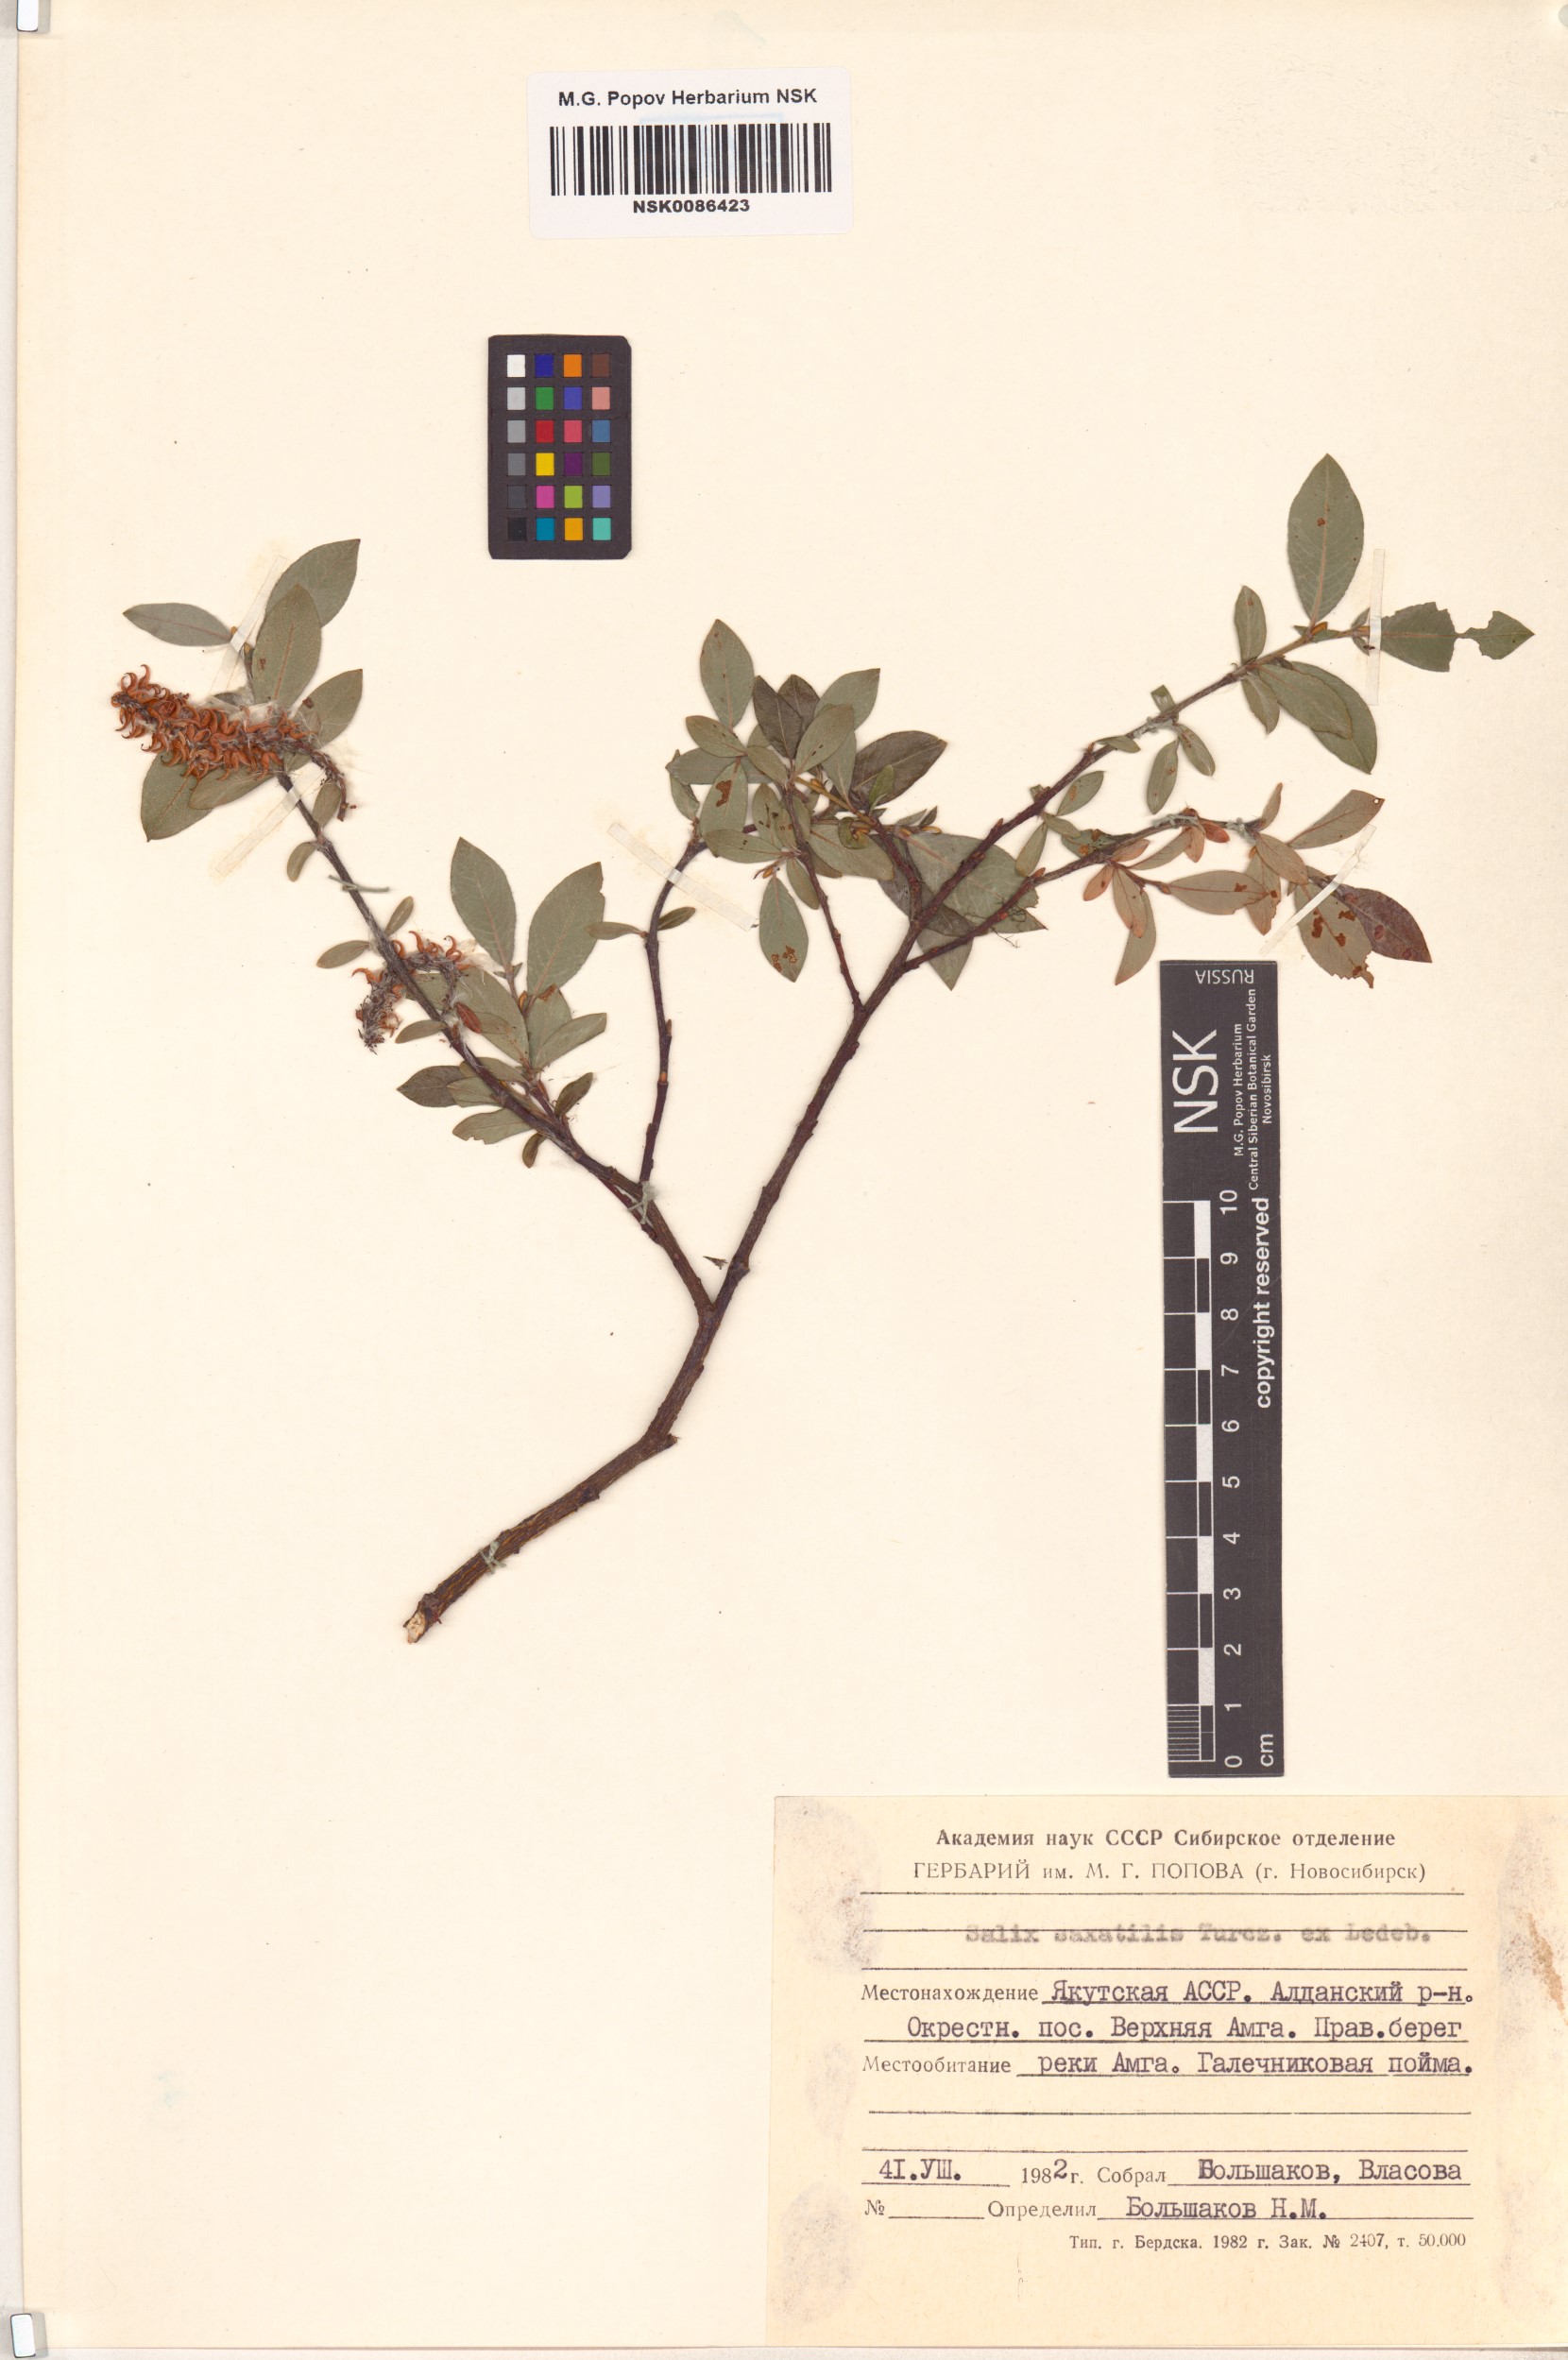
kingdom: Plantae
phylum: Tracheophyta
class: Magnoliopsida
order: Malpighiales
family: Salicaceae
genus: Salix
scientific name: Salix saxatilis
